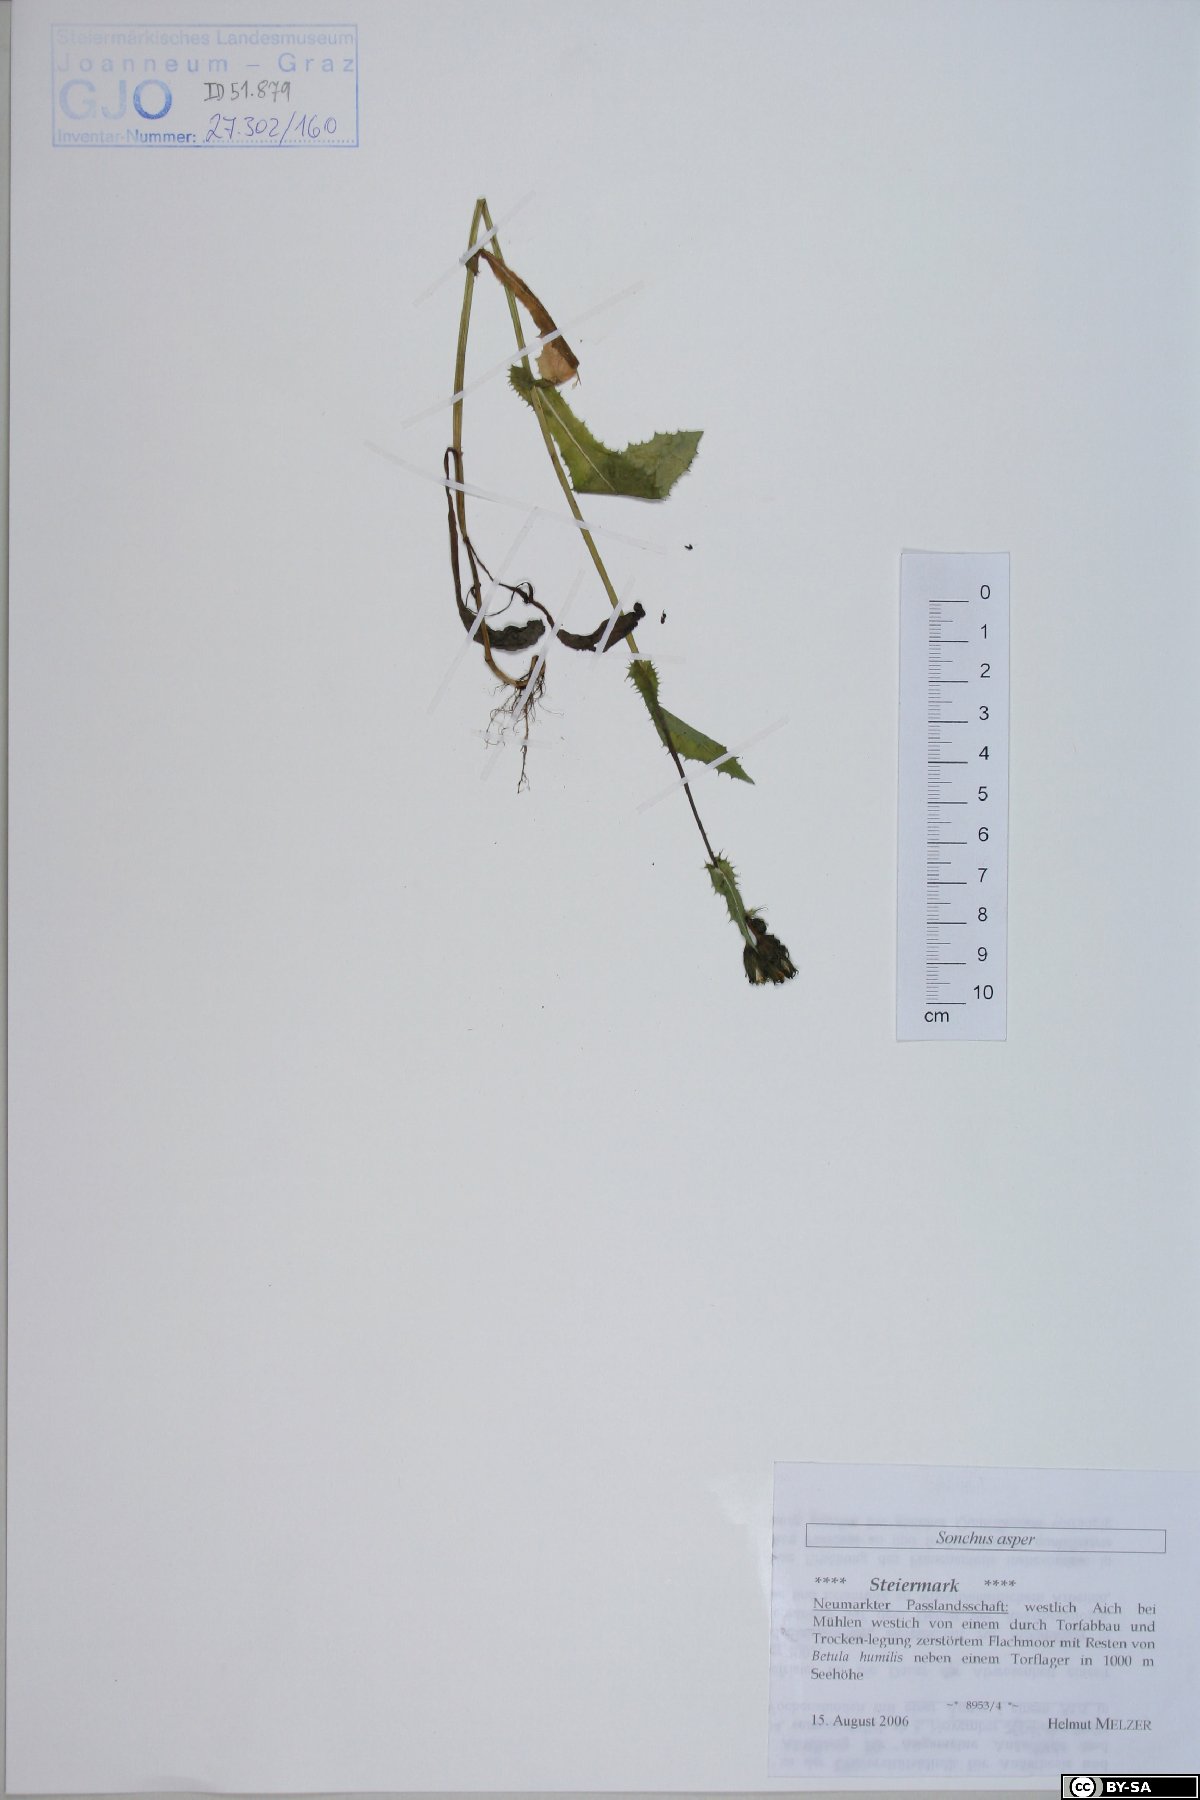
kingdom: Plantae
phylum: Tracheophyta
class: Magnoliopsida
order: Asterales
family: Asteraceae
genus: Sonchus
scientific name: Sonchus asper
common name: Prickly sow-thistle
